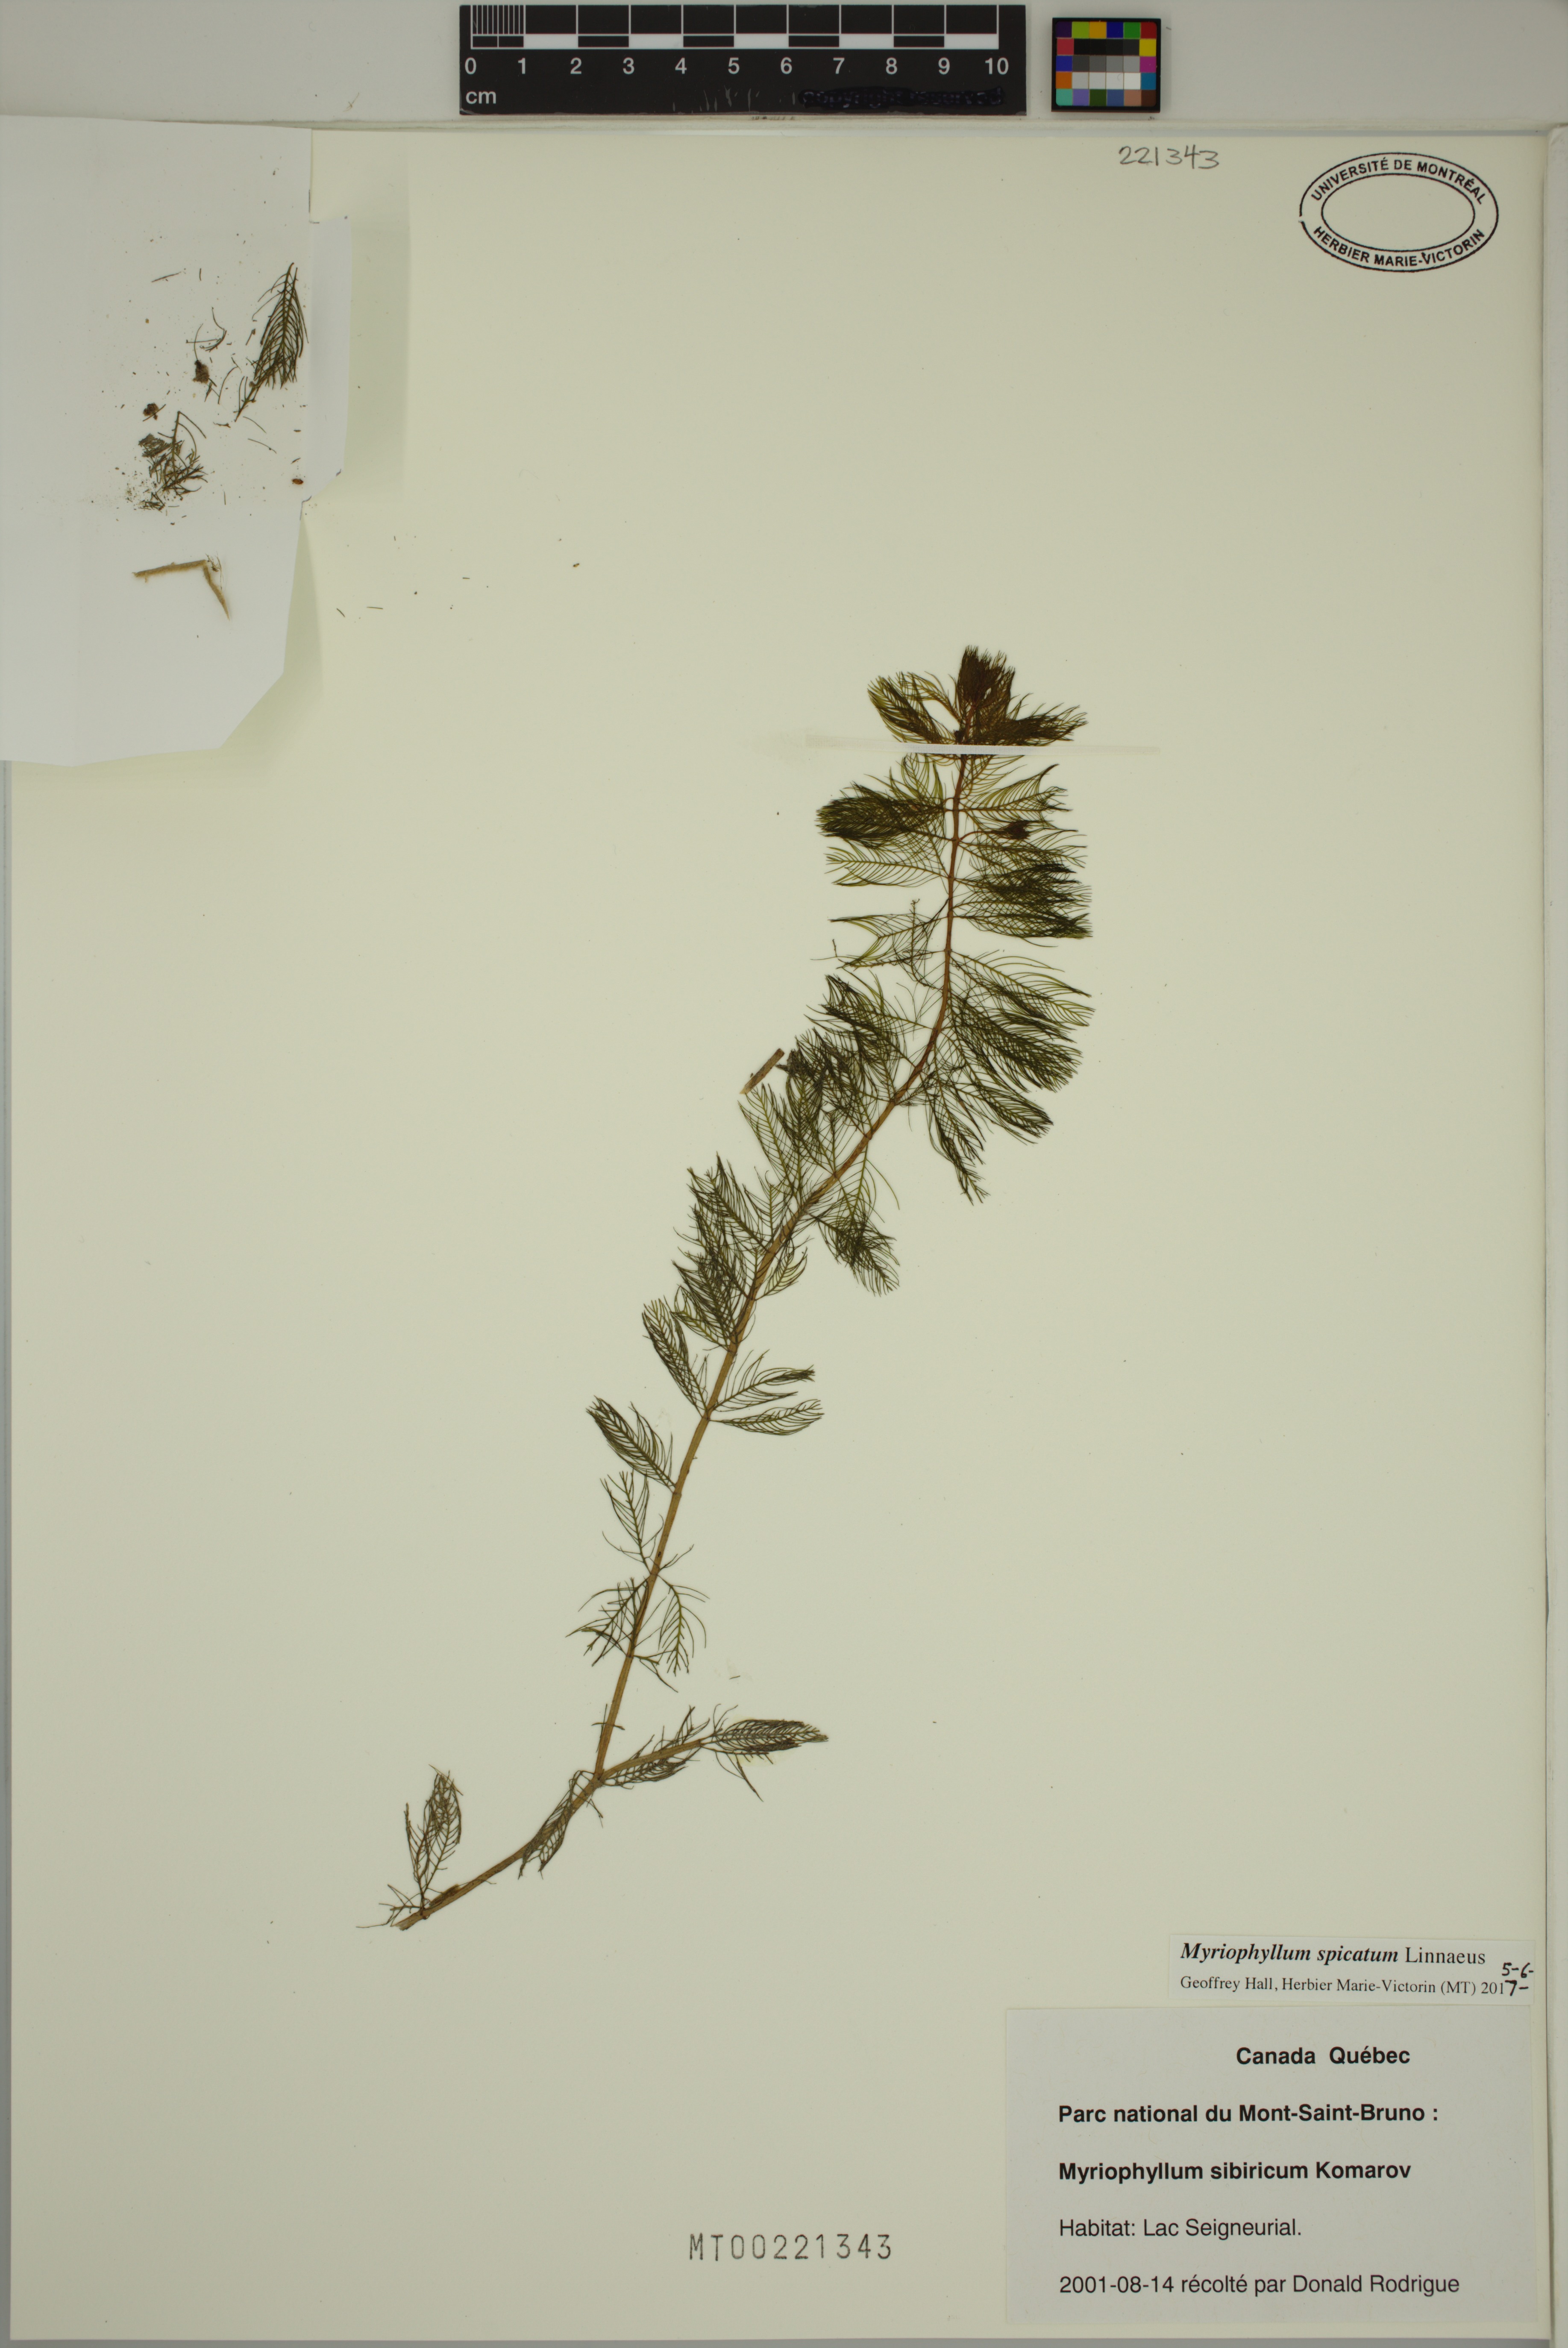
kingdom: Plantae
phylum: Tracheophyta
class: Magnoliopsida
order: Saxifragales
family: Haloragaceae
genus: Myriophyllum
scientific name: Myriophyllum spicatum
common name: Spiked water-milfoil
